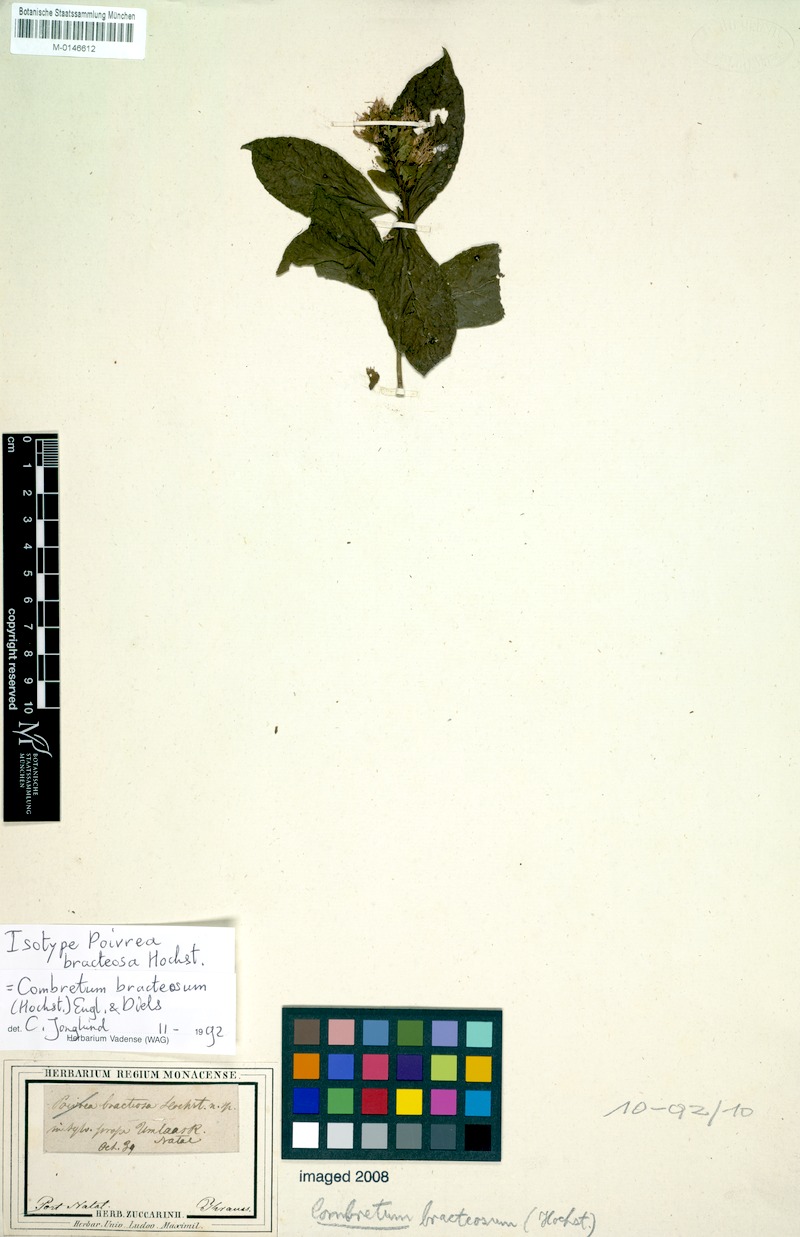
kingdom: Plantae
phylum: Tracheophyta
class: Magnoliopsida
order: Myrtales
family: Combretaceae
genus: Combretum
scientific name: Combretum bracteosum
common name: Hiccup-nut
